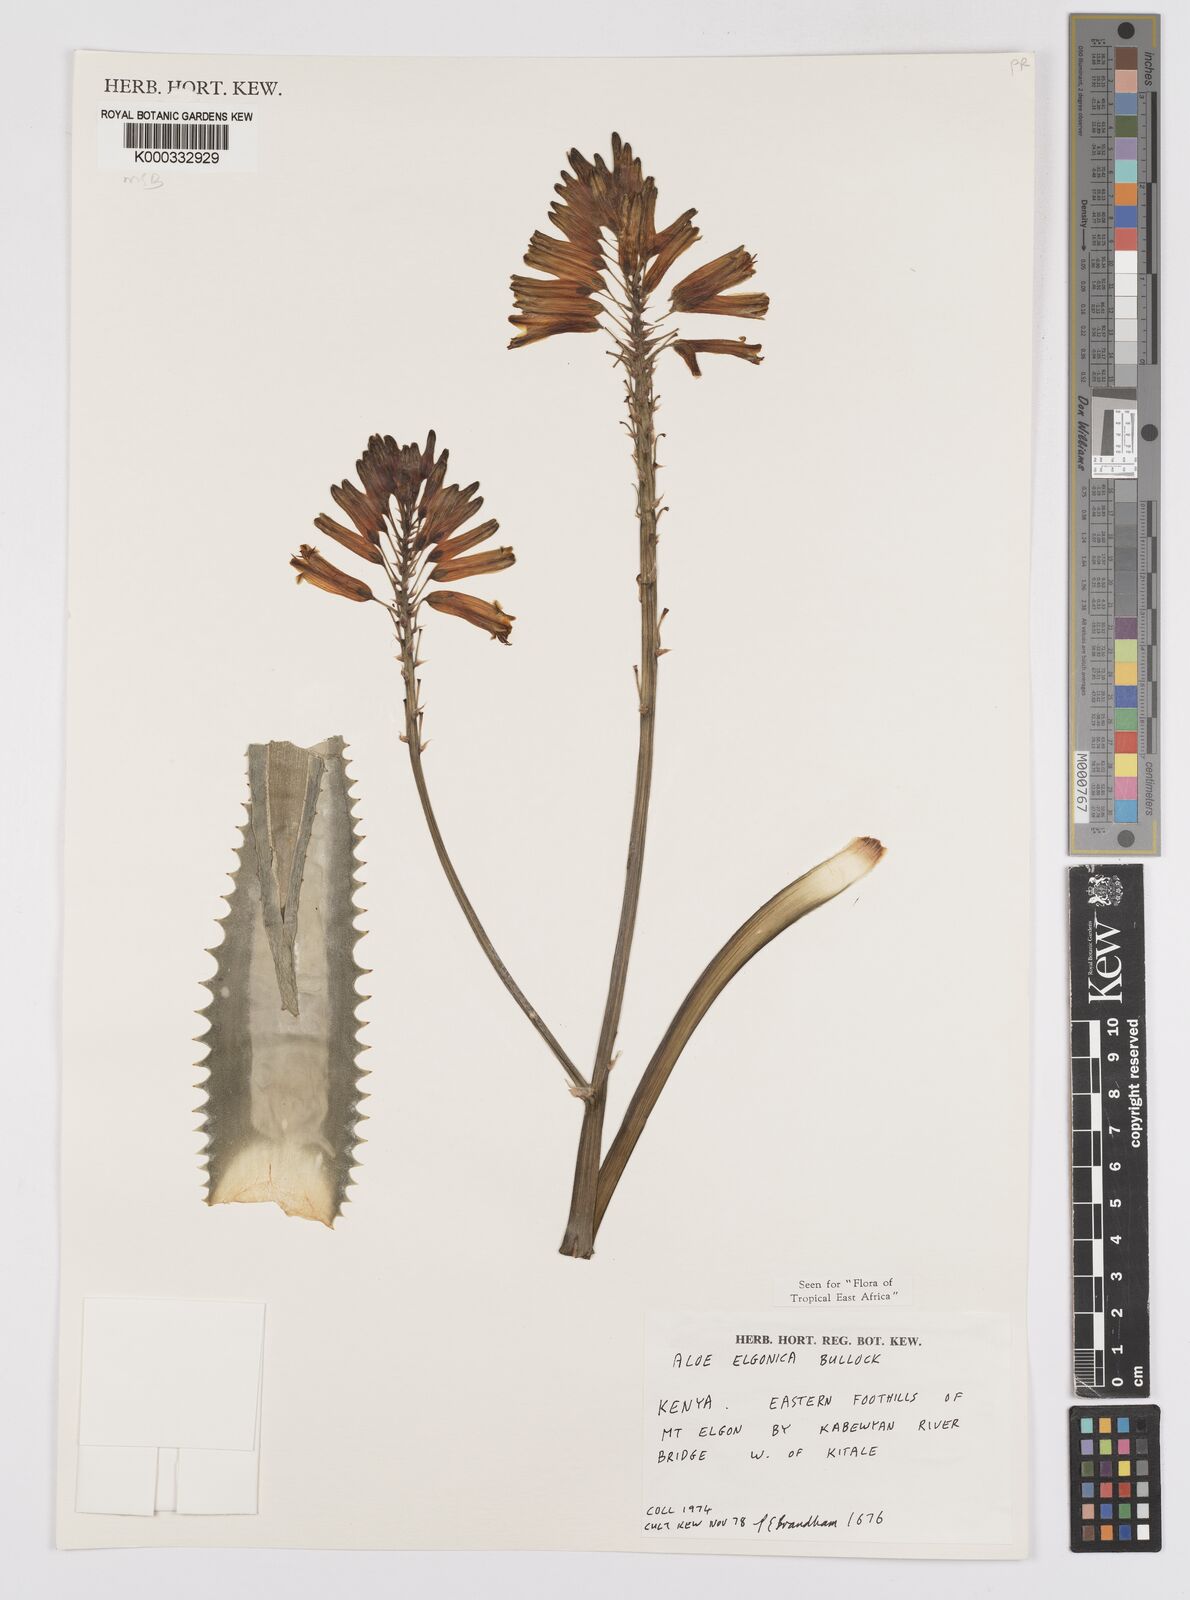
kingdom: Plantae
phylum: Tracheophyta
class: Liliopsida
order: Asparagales
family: Asphodelaceae
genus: Aloe
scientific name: Aloe elgonica
